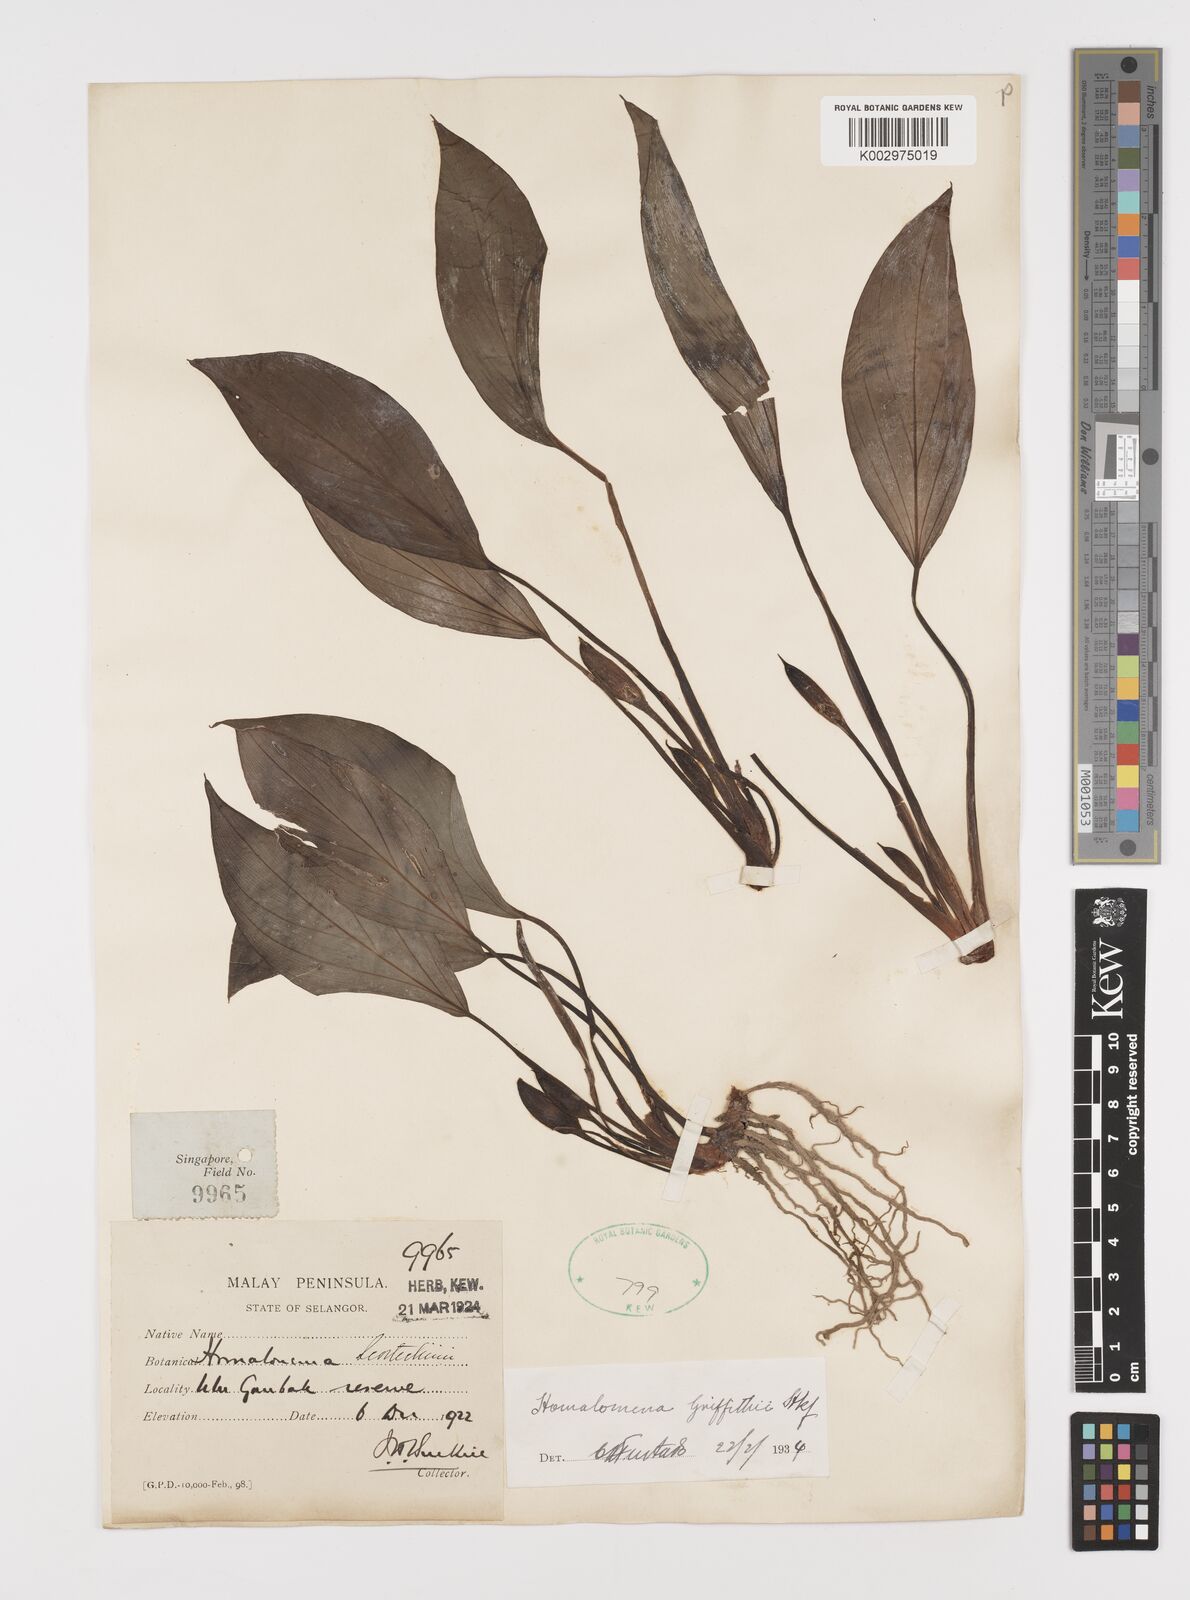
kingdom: Plantae
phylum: Tracheophyta
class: Liliopsida
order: Alismatales
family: Araceae
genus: Homalomena
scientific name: Homalomena griffithii
